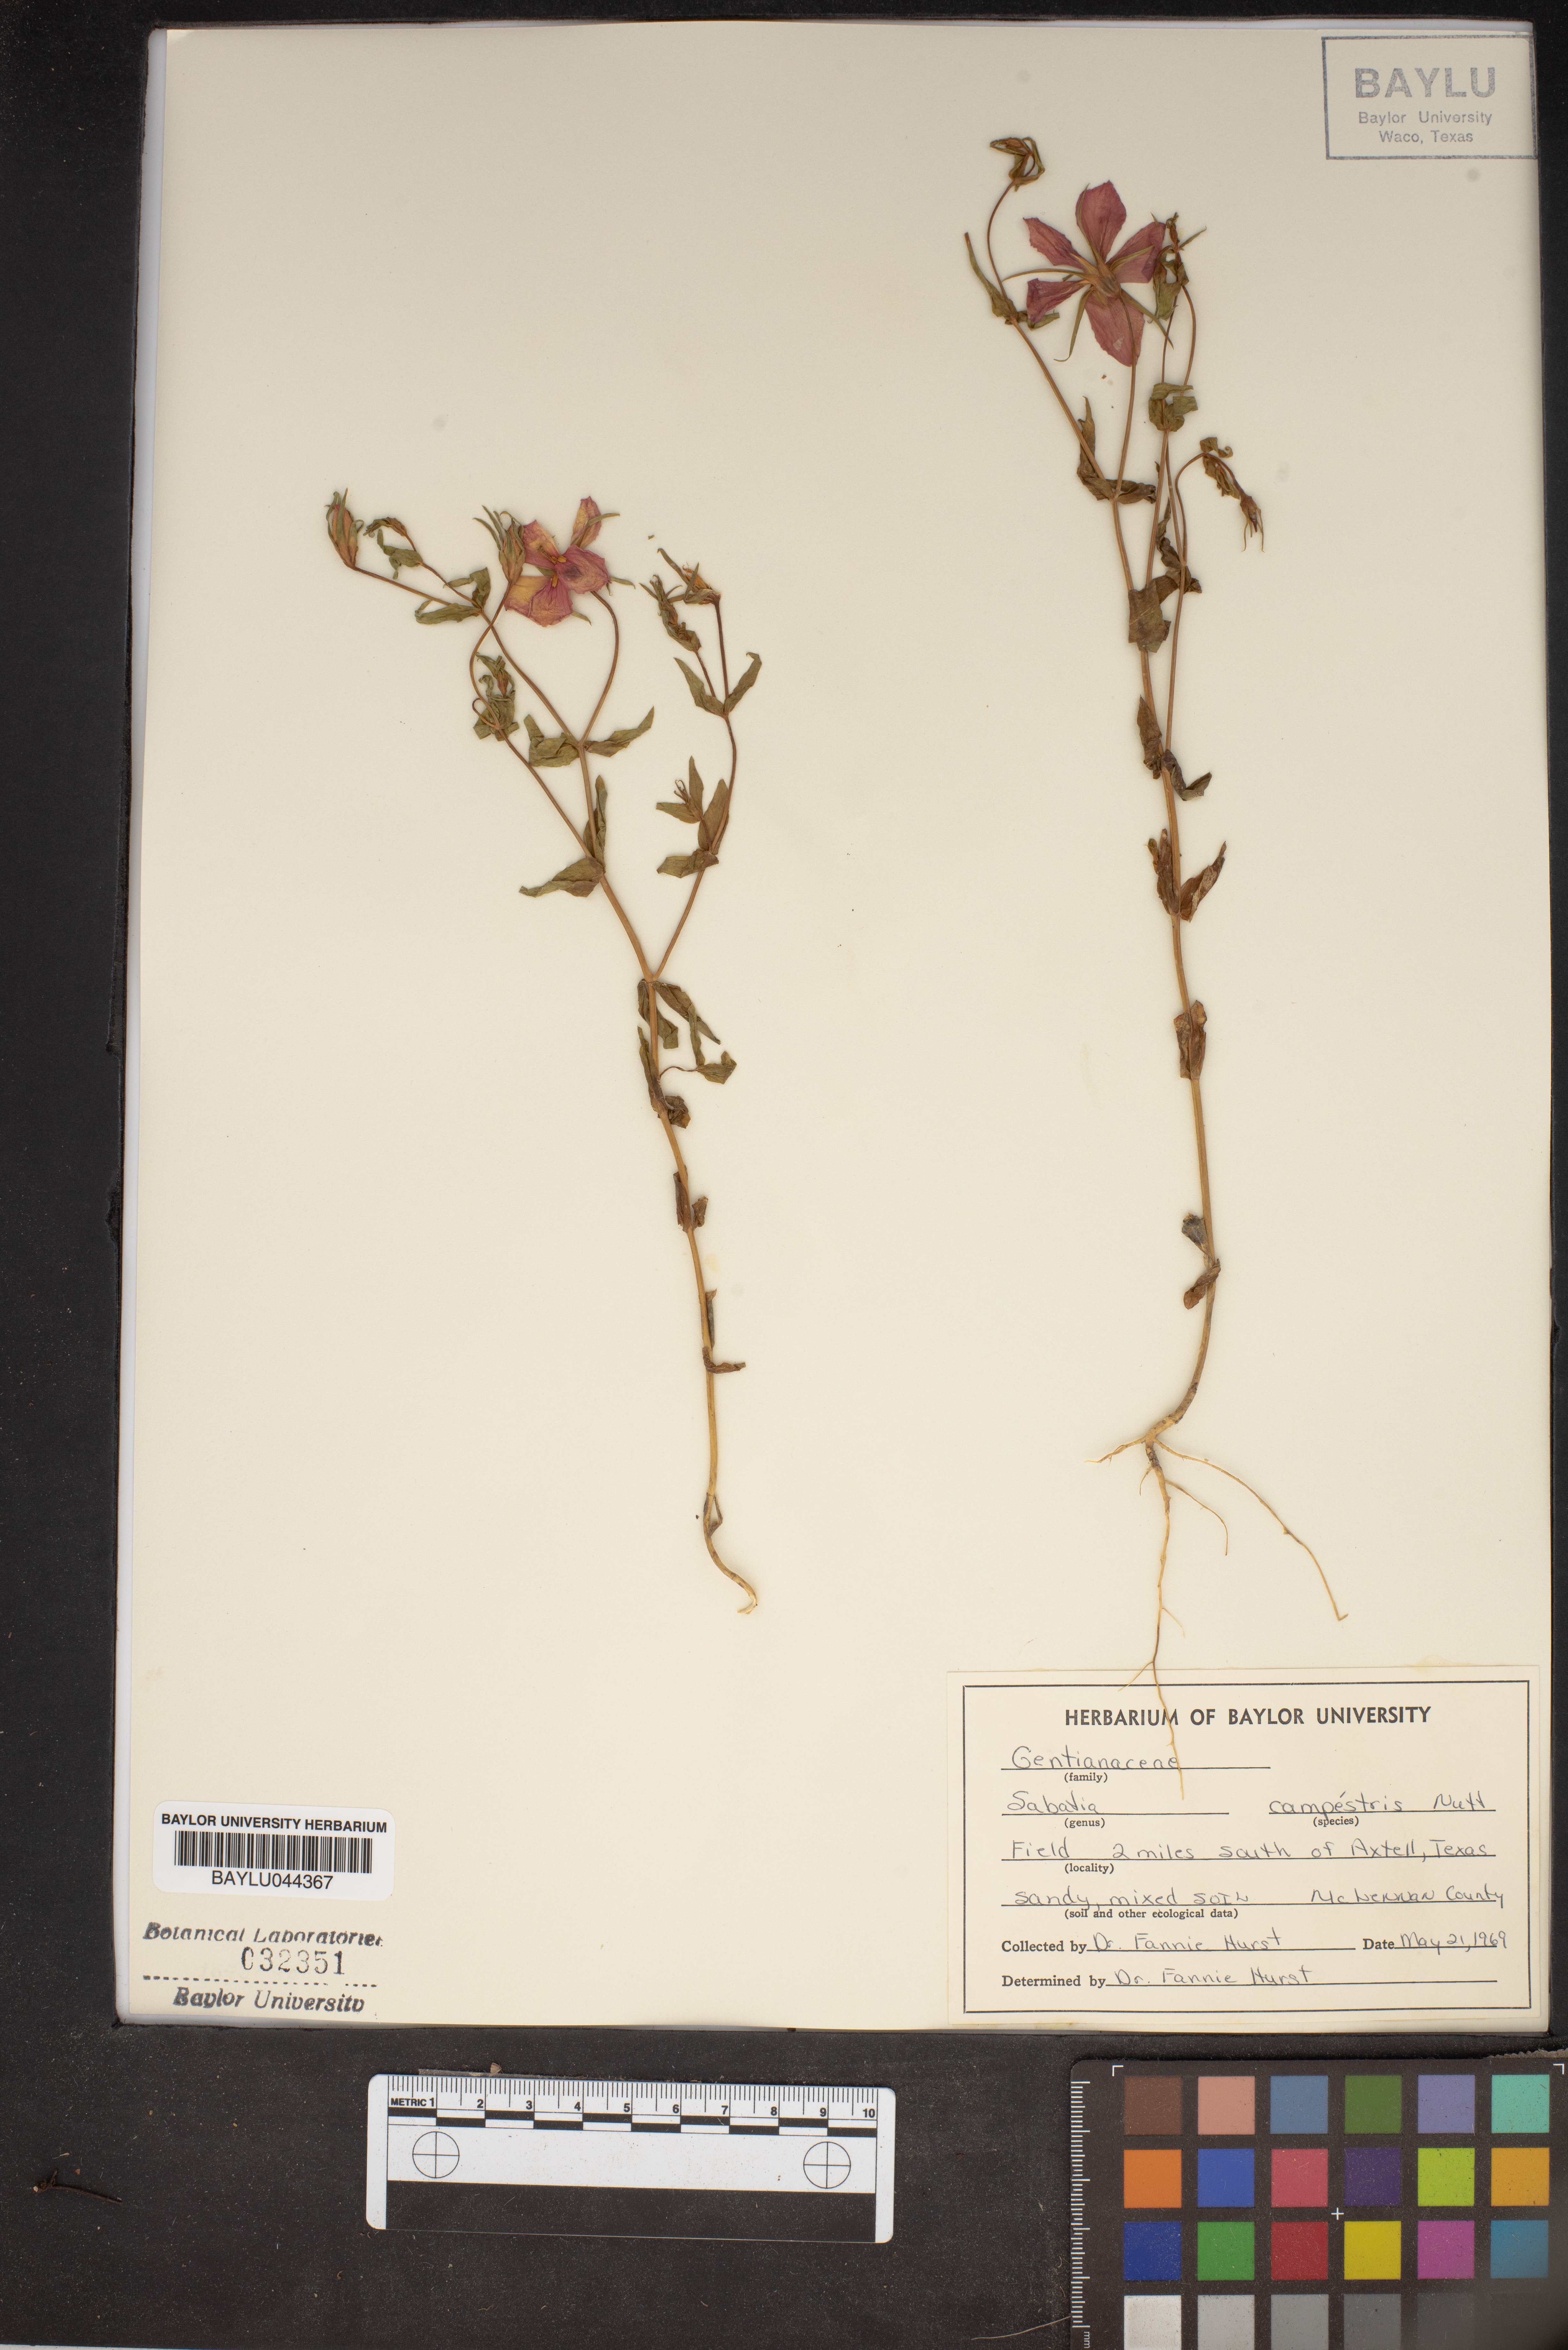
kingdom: Plantae
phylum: Tracheophyta
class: Magnoliopsida
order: Gentianales
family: Gentianaceae
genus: Sabatia
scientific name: Sabatia campestris
